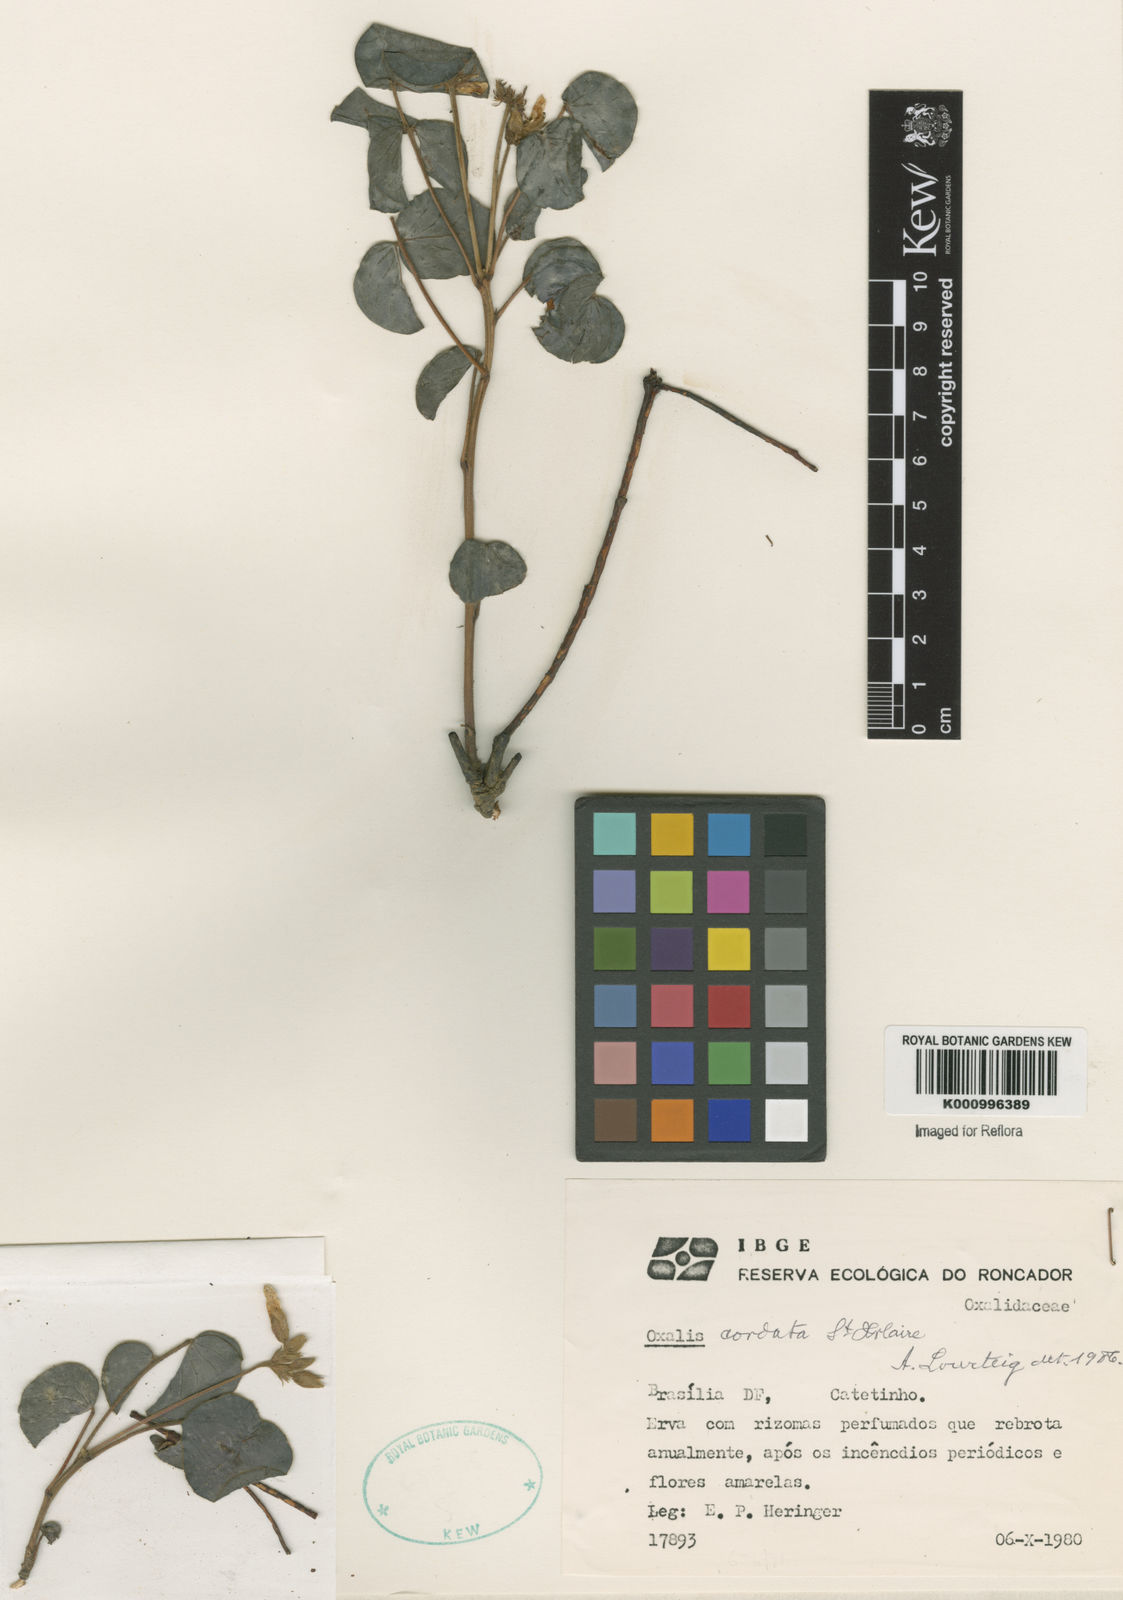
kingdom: Plantae
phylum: Tracheophyta
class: Magnoliopsida
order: Oxalidales
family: Oxalidaceae
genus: Oxalis
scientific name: Oxalis cordata
